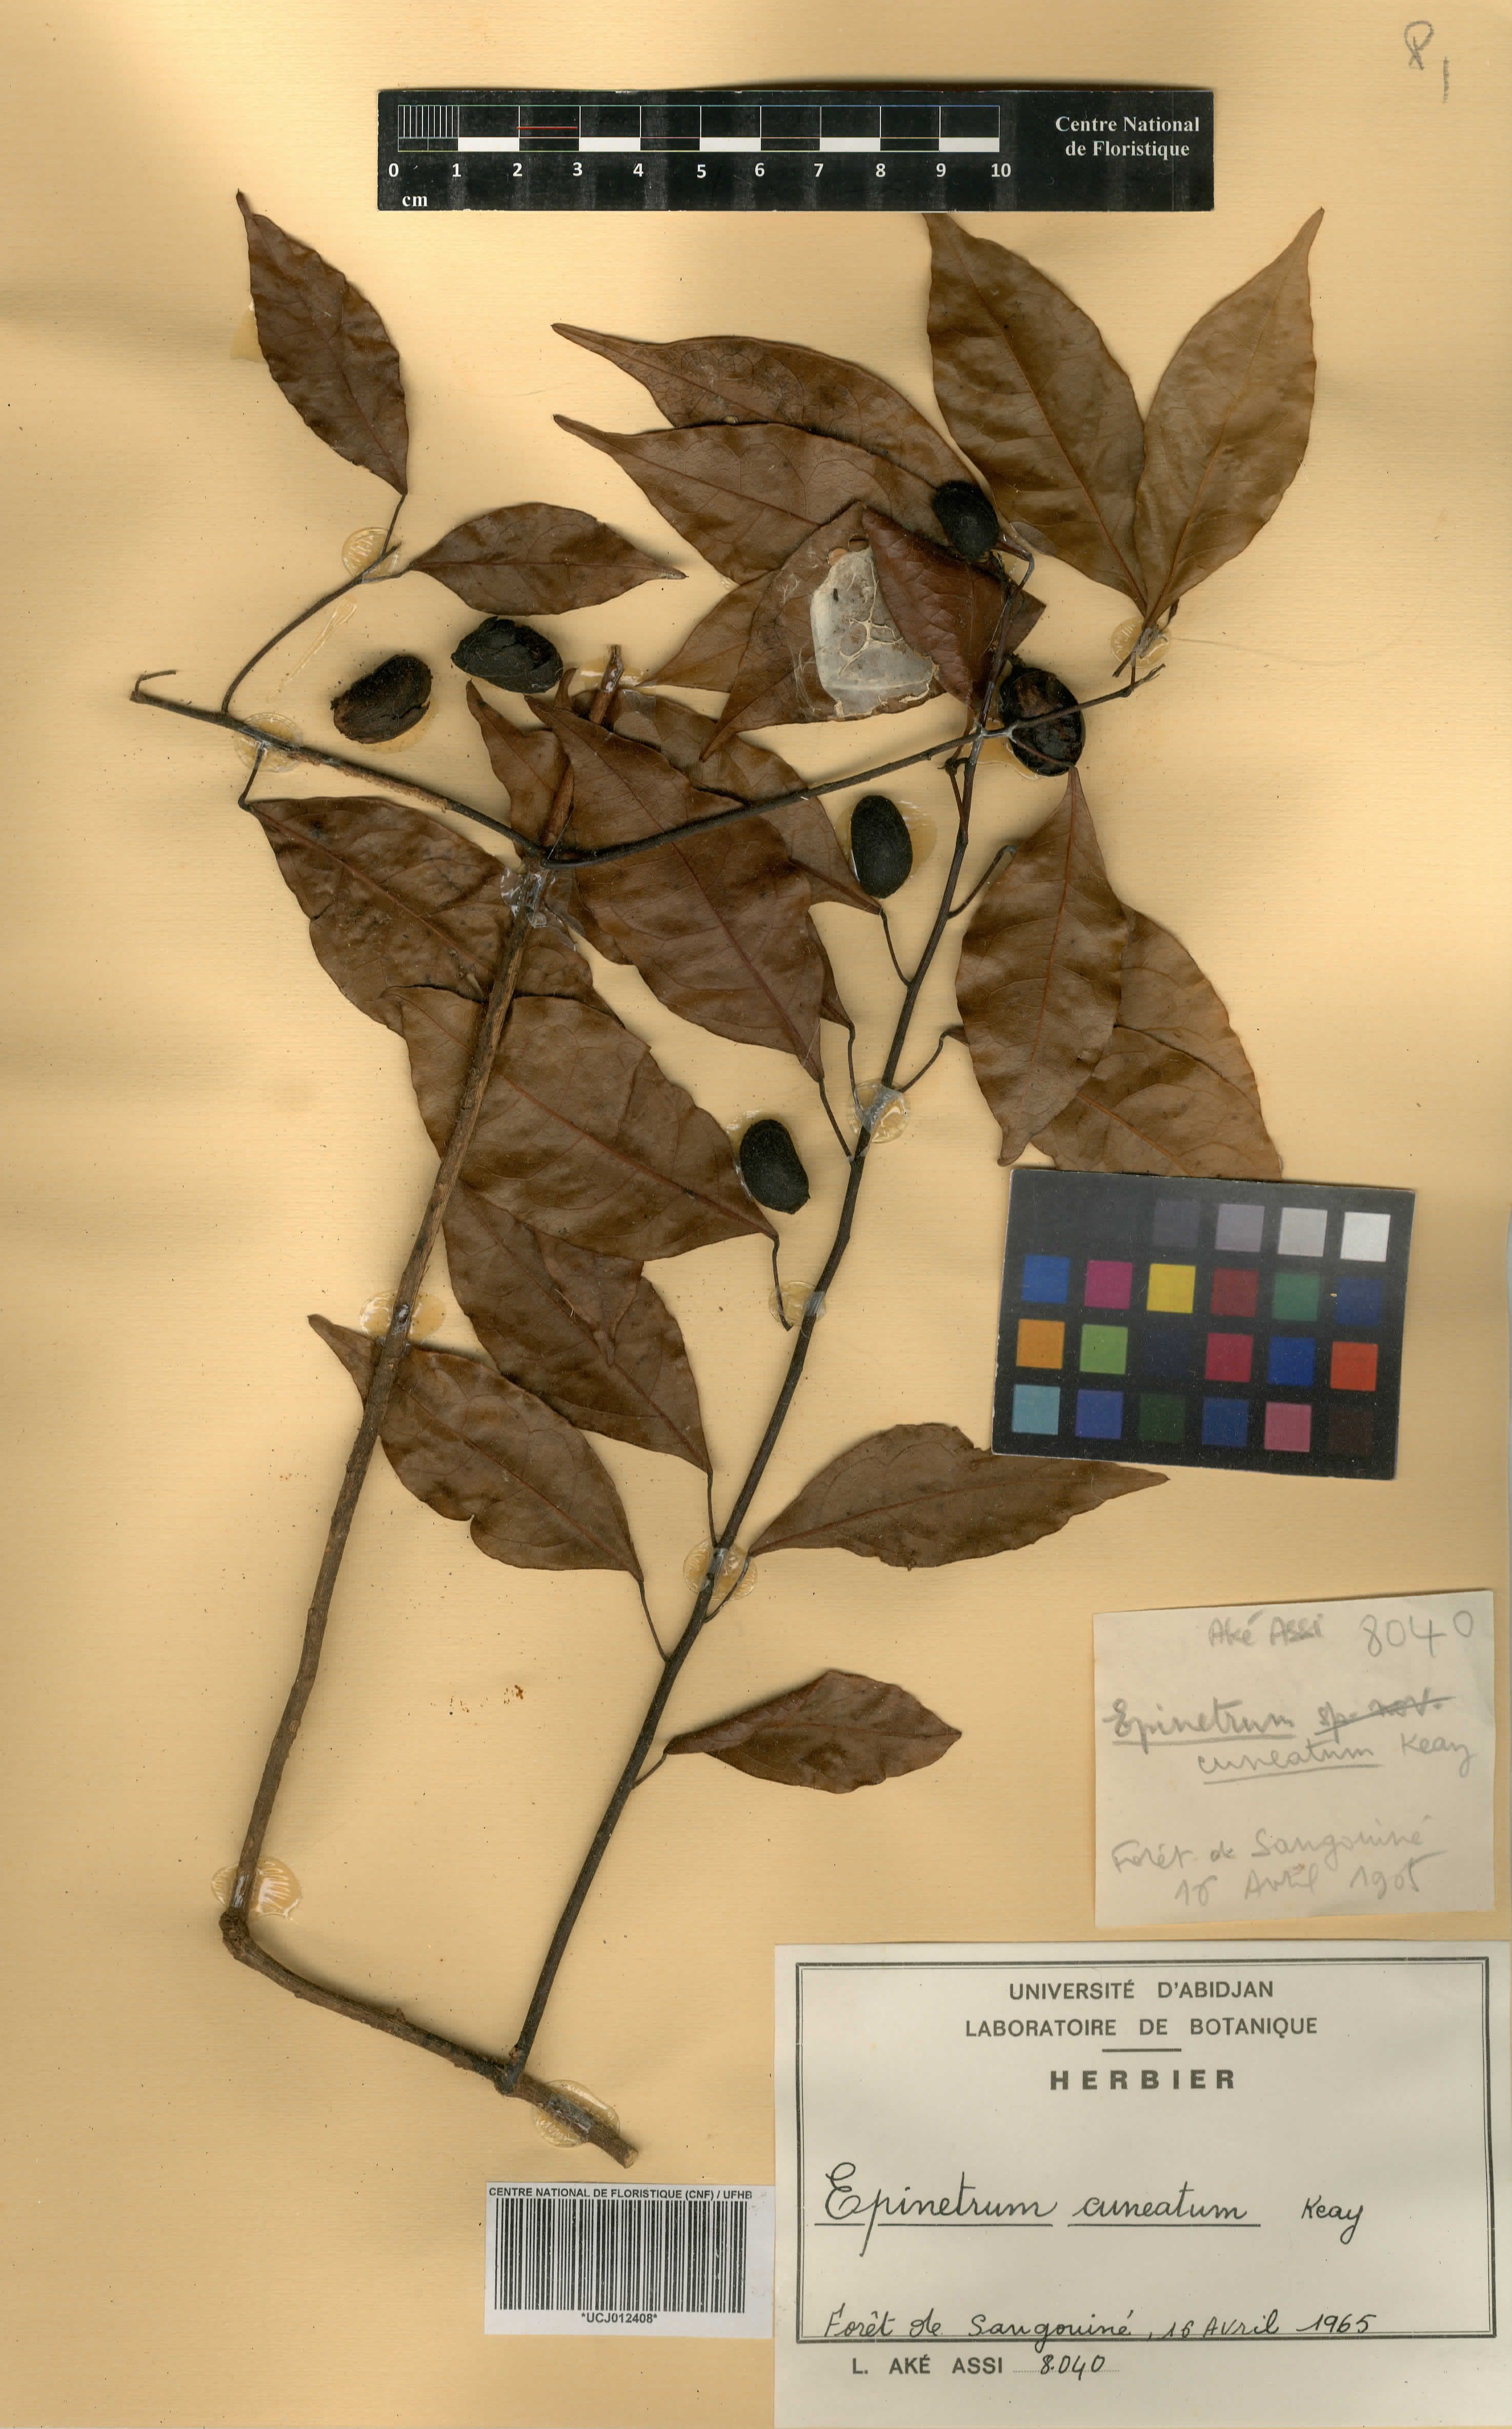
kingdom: Plantae
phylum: Tracheophyta
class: Magnoliopsida
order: Ranunculales
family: Menispermaceae
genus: Albertisia
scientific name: Albertisia cuneata
